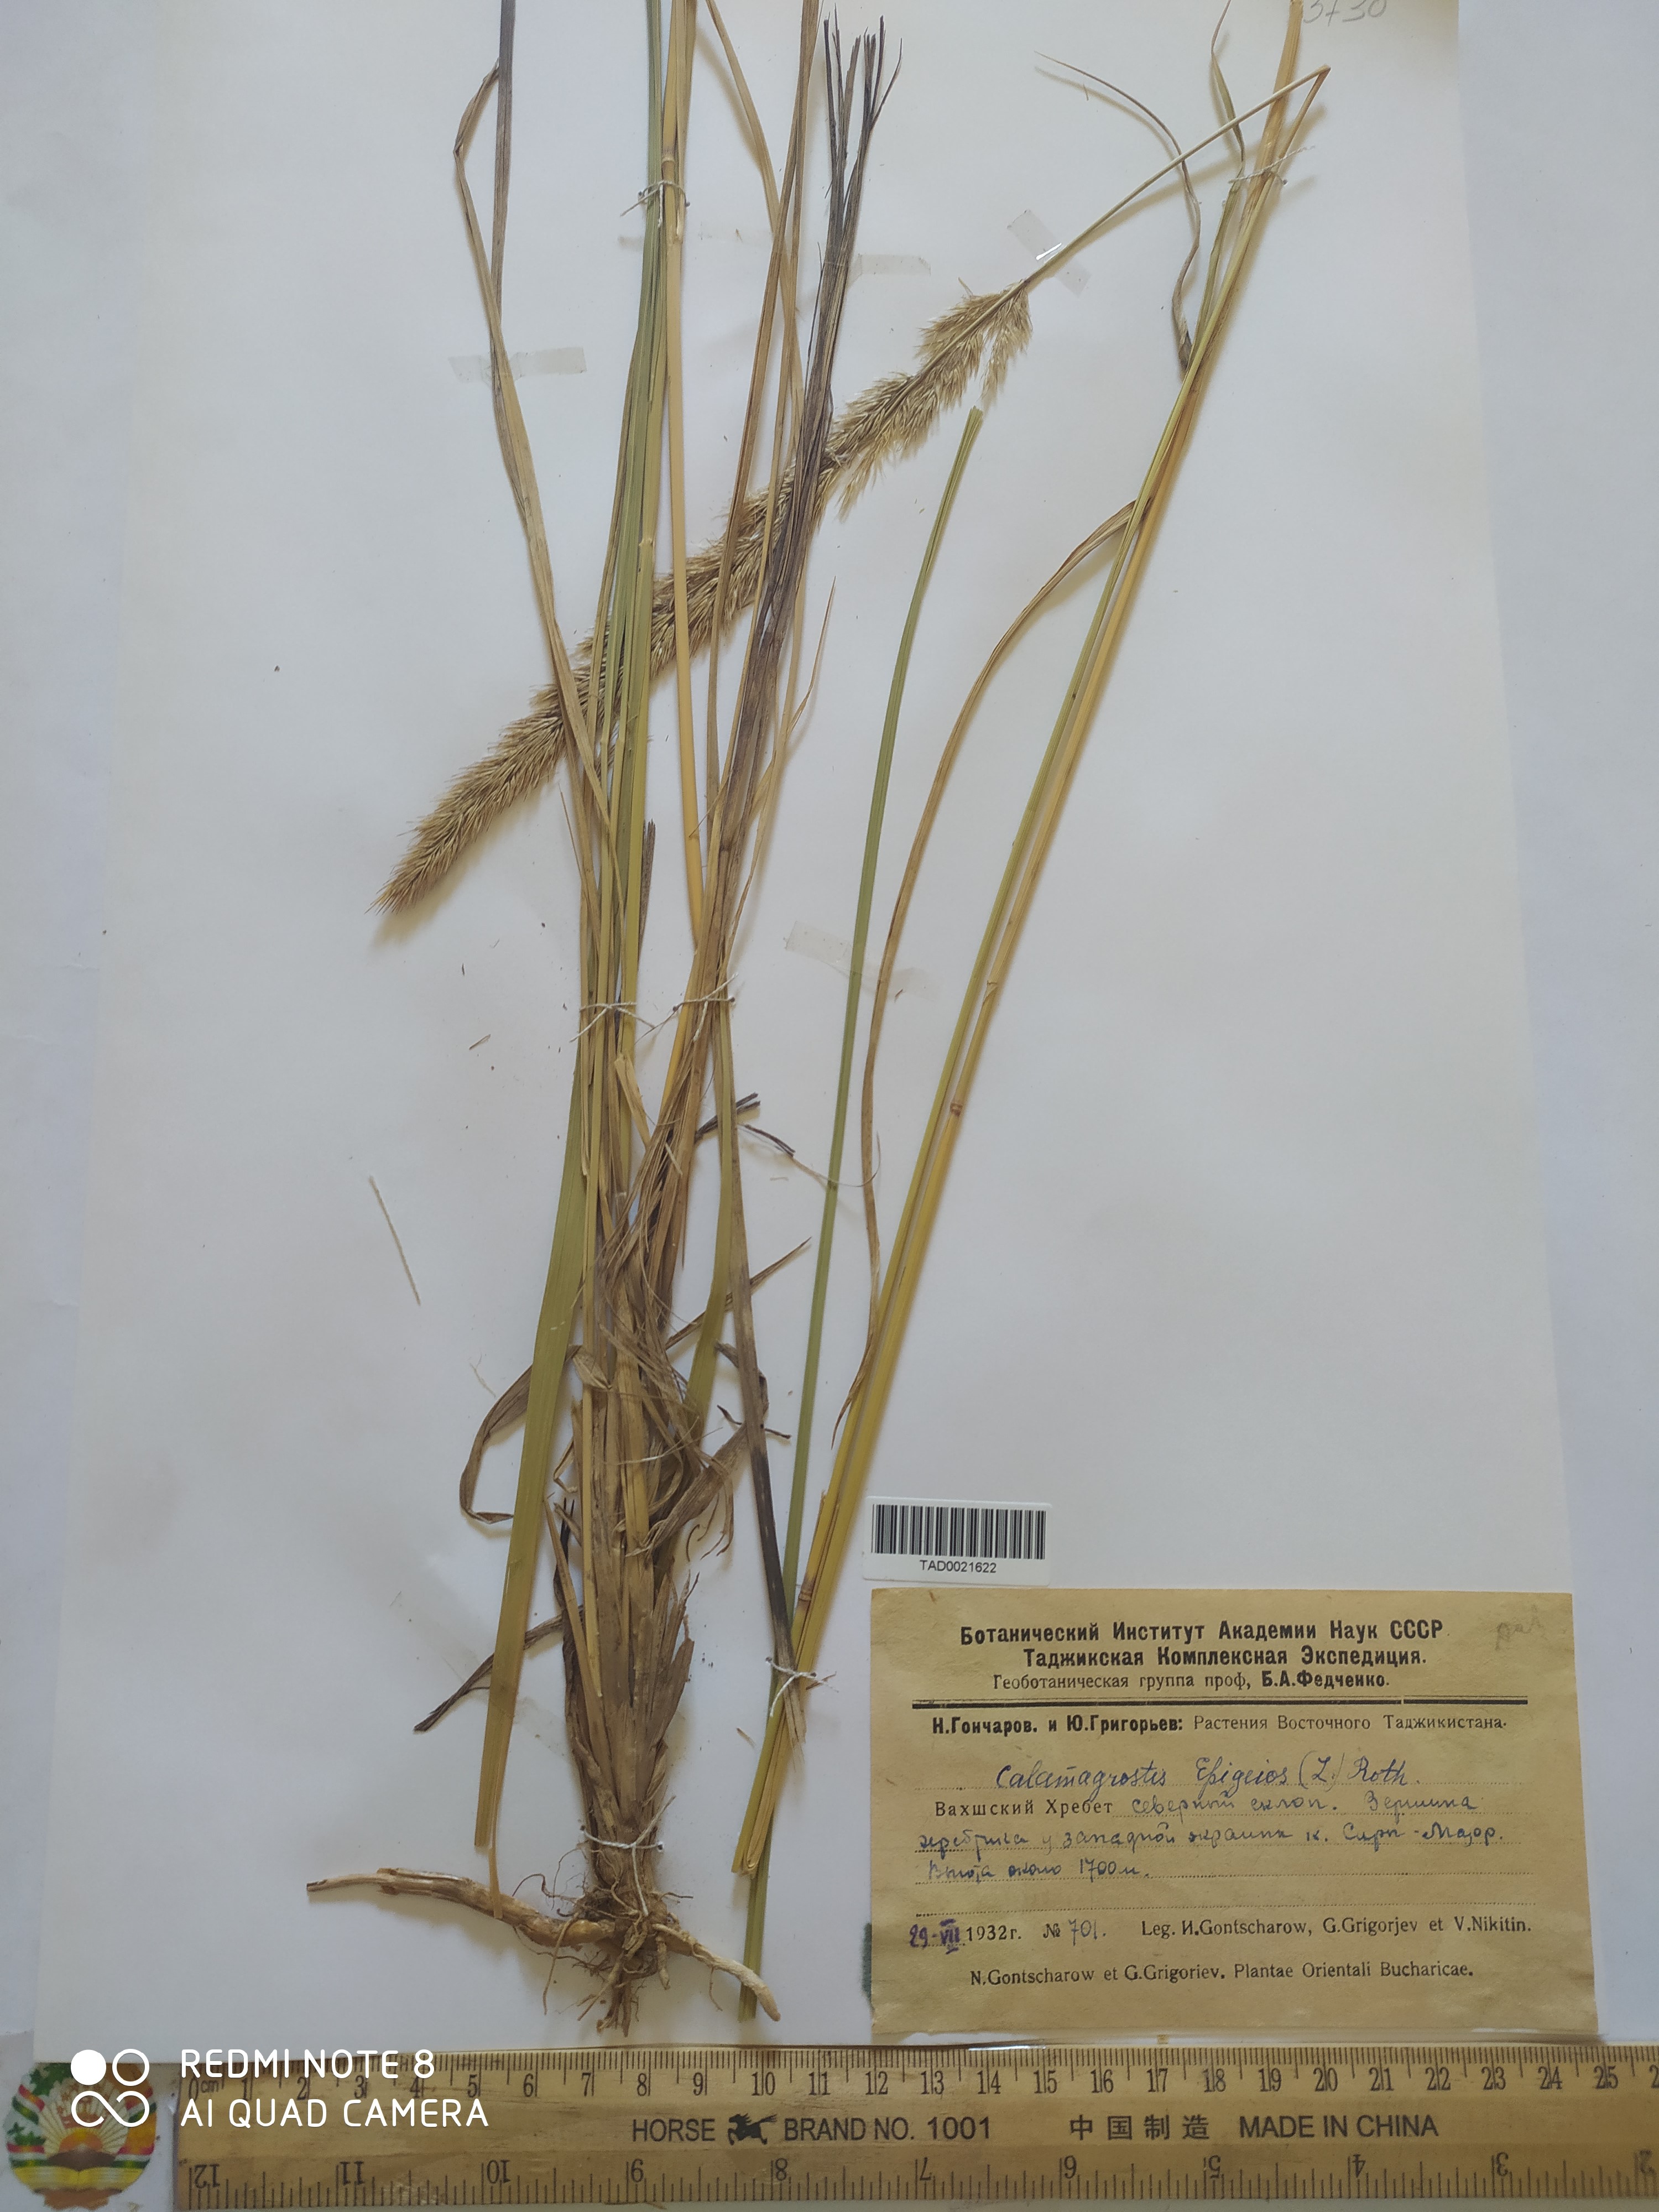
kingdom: Plantae
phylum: Tracheophyta
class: Liliopsida
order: Poales
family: Poaceae
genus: Calamagrostis
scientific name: Calamagrostis epigejos
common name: Wood small-reed
